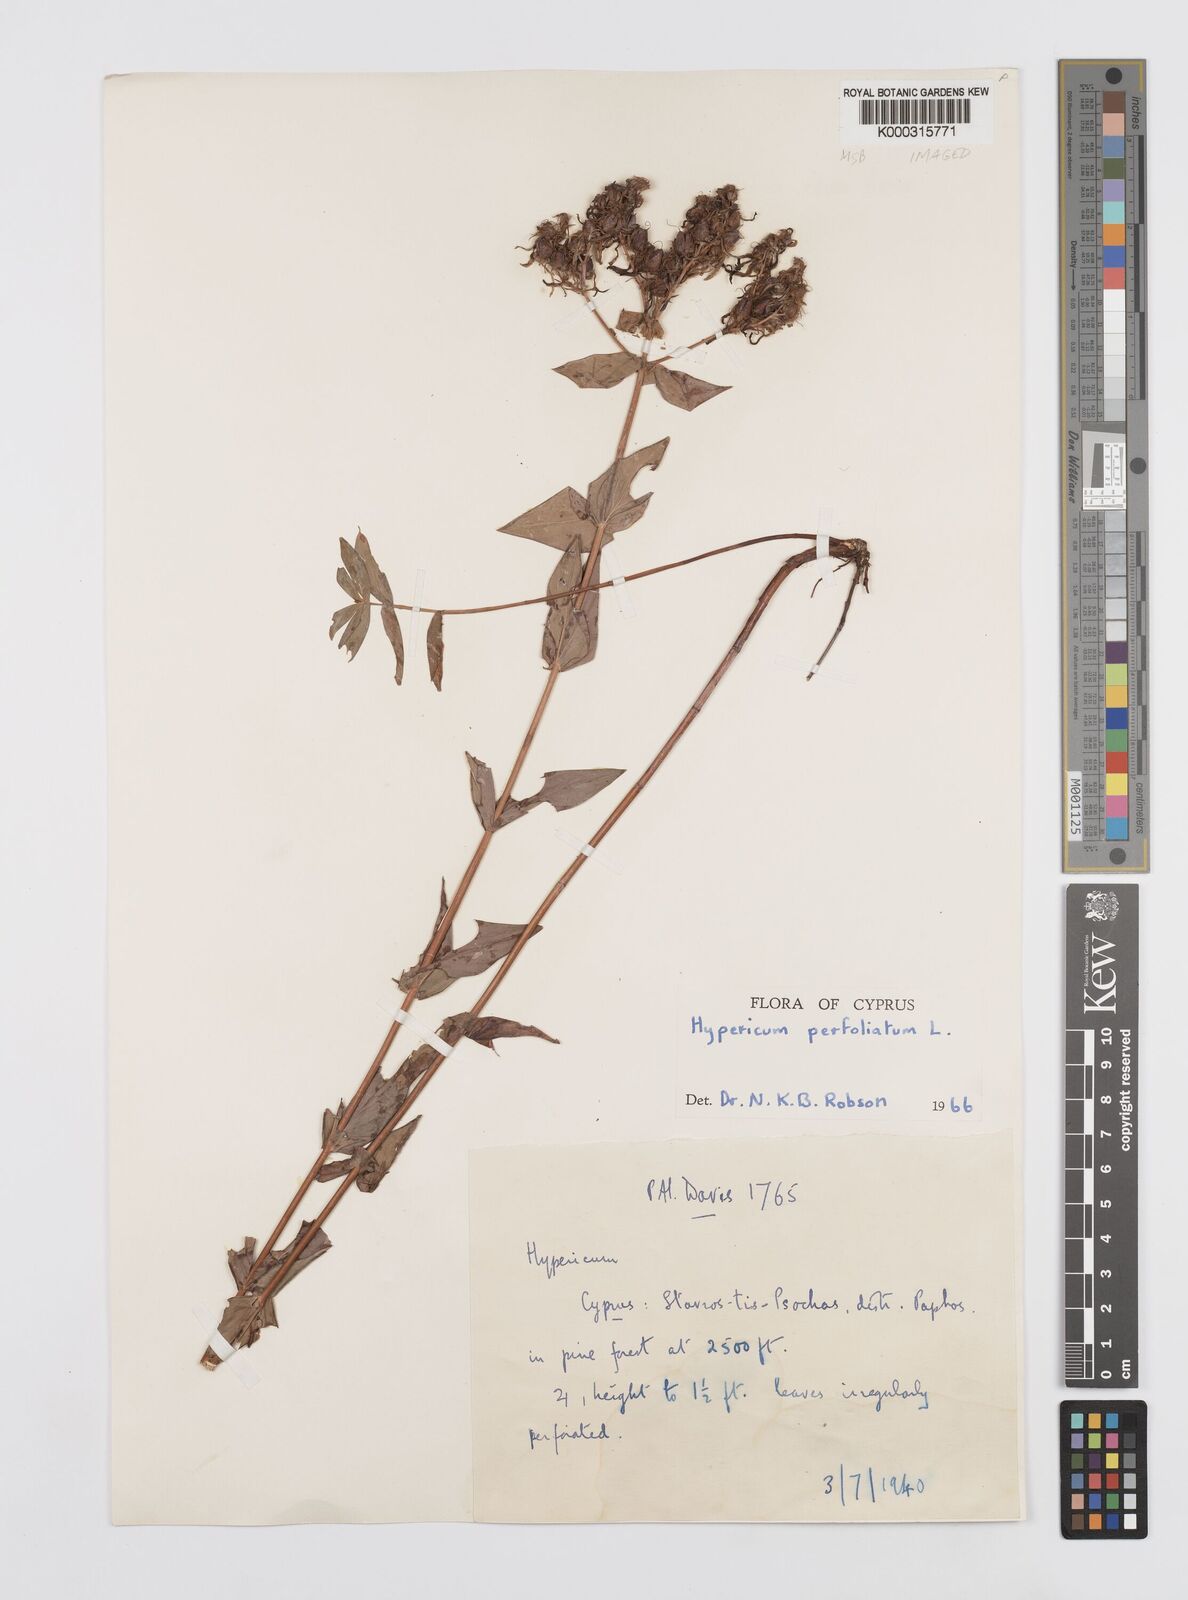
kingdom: Plantae
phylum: Tracheophyta
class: Magnoliopsida
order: Malpighiales
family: Hypericaceae
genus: Hypericum
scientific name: Hypericum perfoliatum
